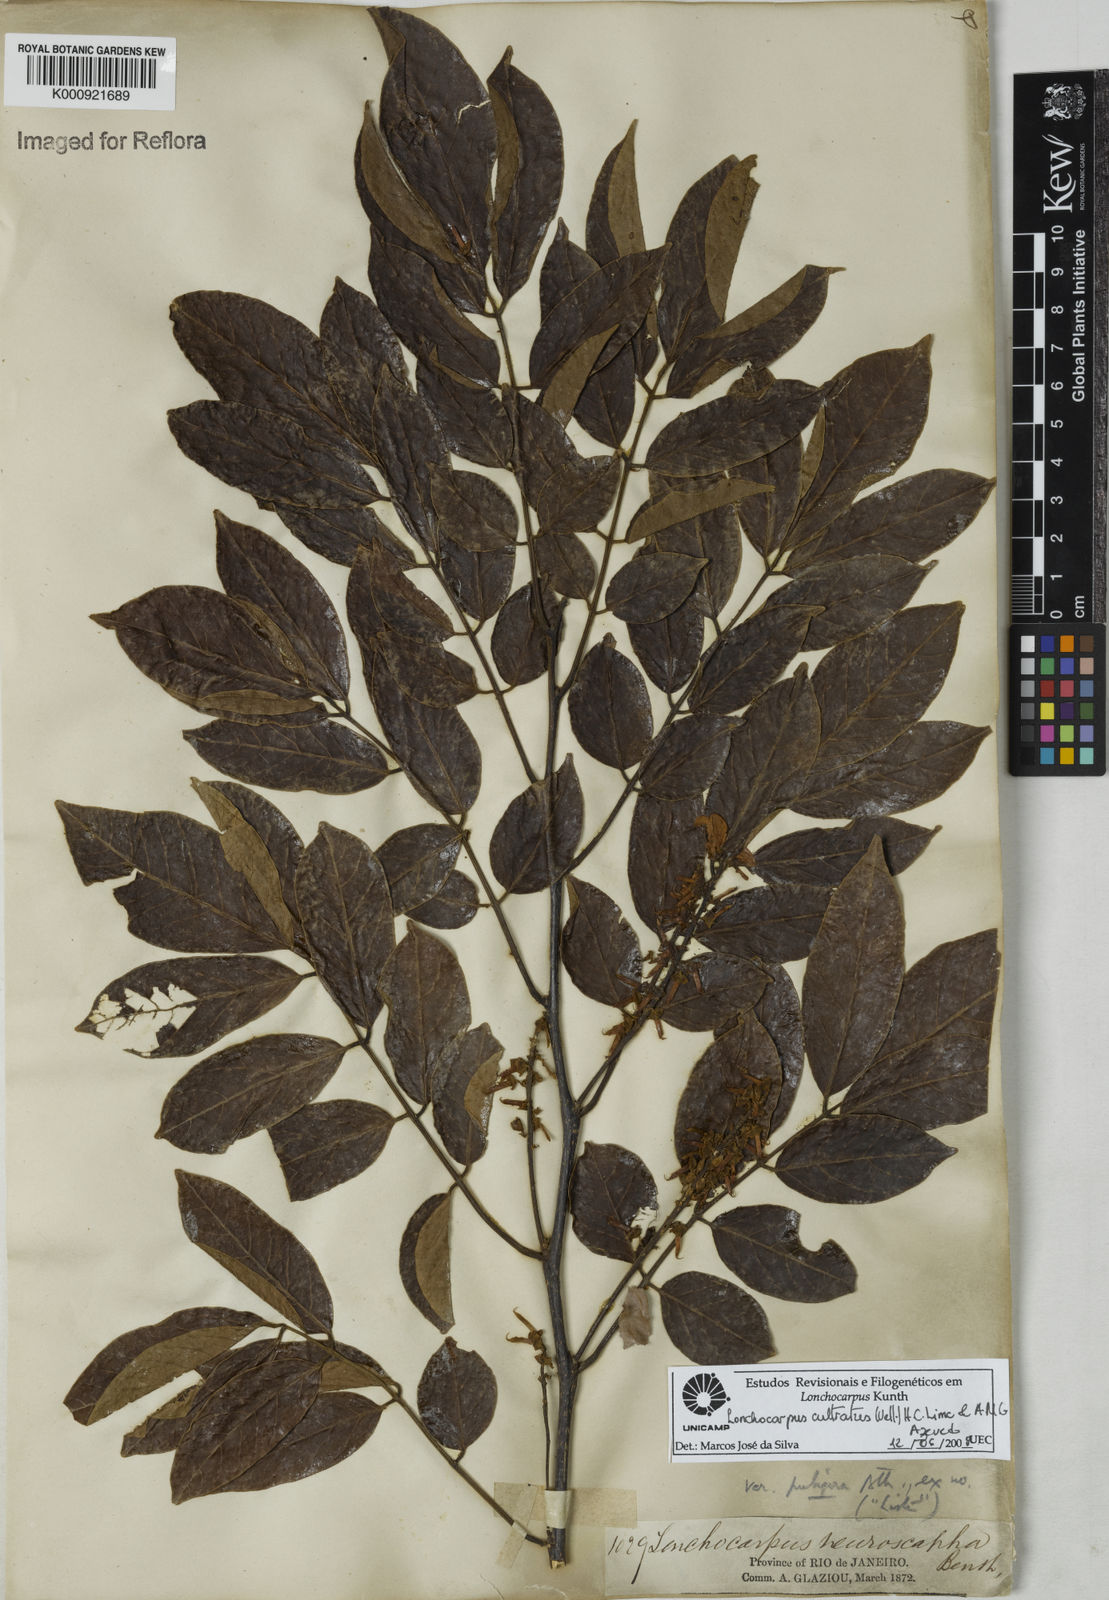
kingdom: Plantae
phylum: Tracheophyta
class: Magnoliopsida
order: Fabales
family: Fabaceae
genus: Lonchocarpus
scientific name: Lonchocarpus cultratus
